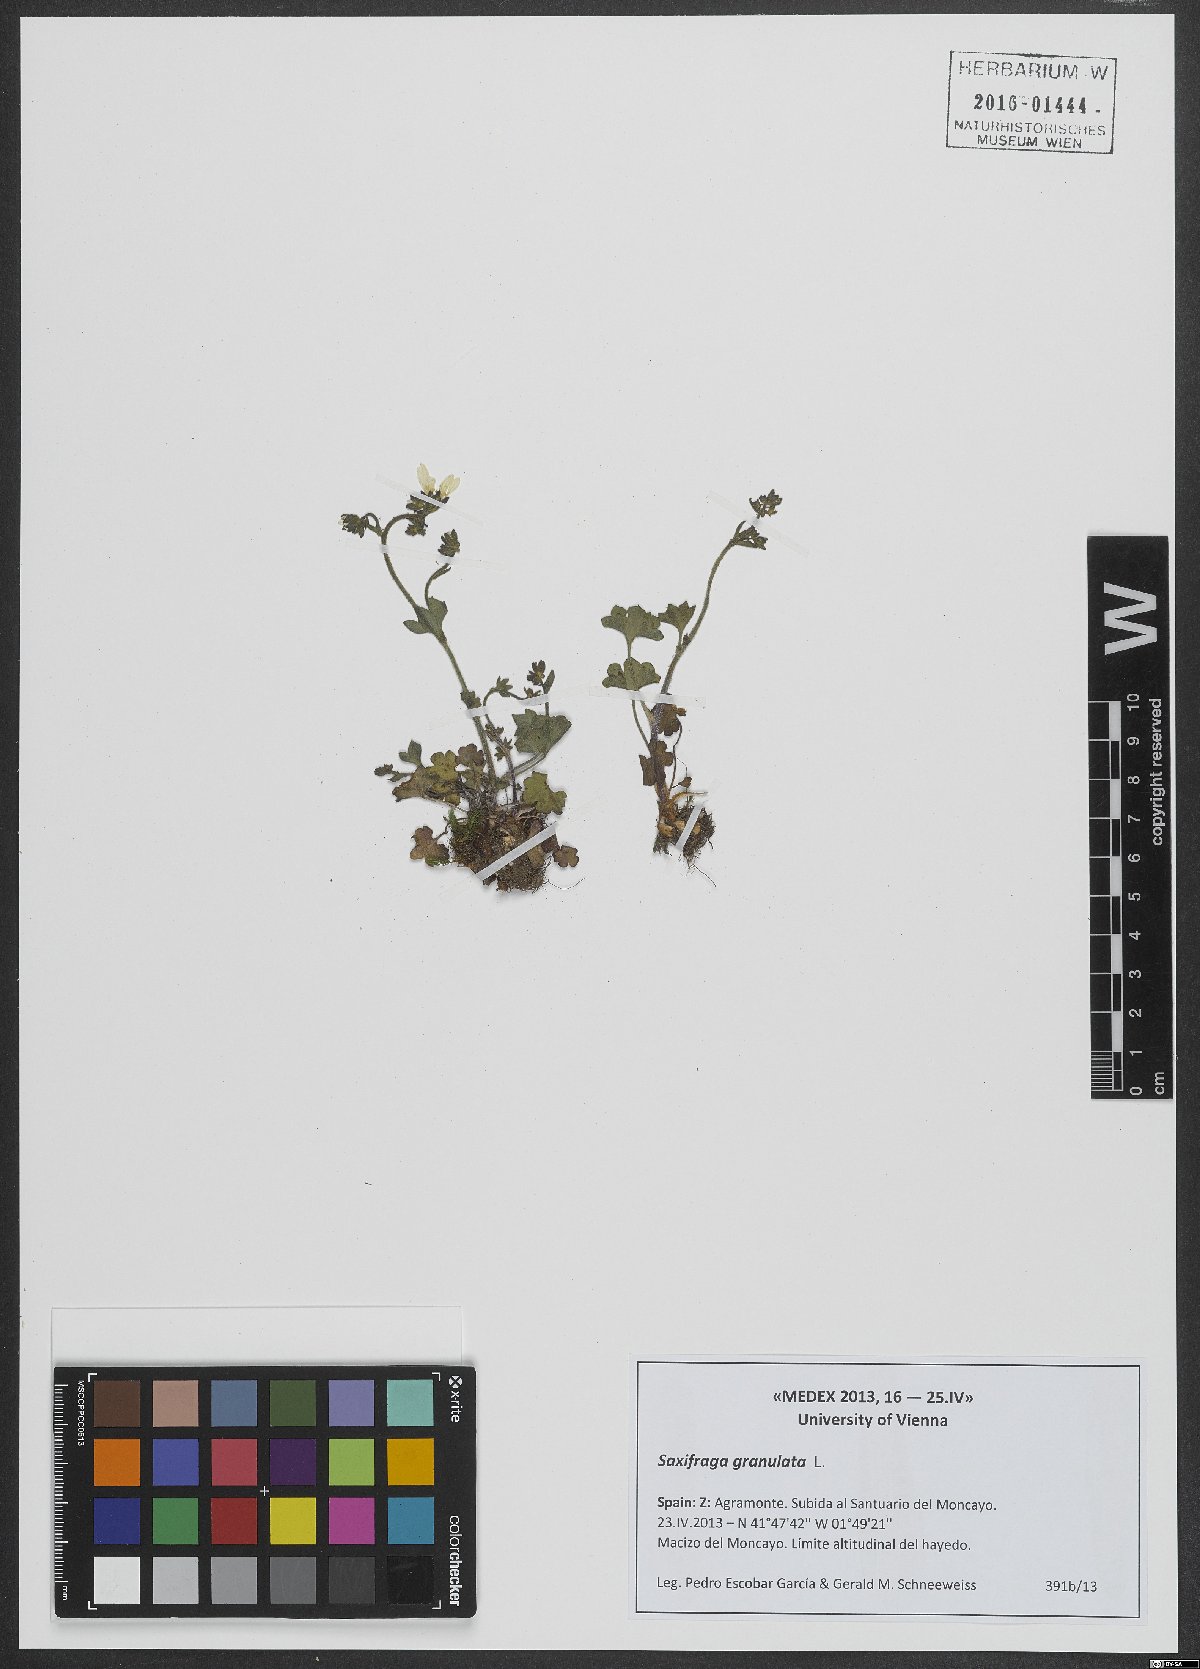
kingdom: Plantae
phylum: Tracheophyta
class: Magnoliopsida
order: Saxifragales
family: Saxifragaceae
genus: Saxifraga
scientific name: Saxifraga granulata
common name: Meadow saxifrage
